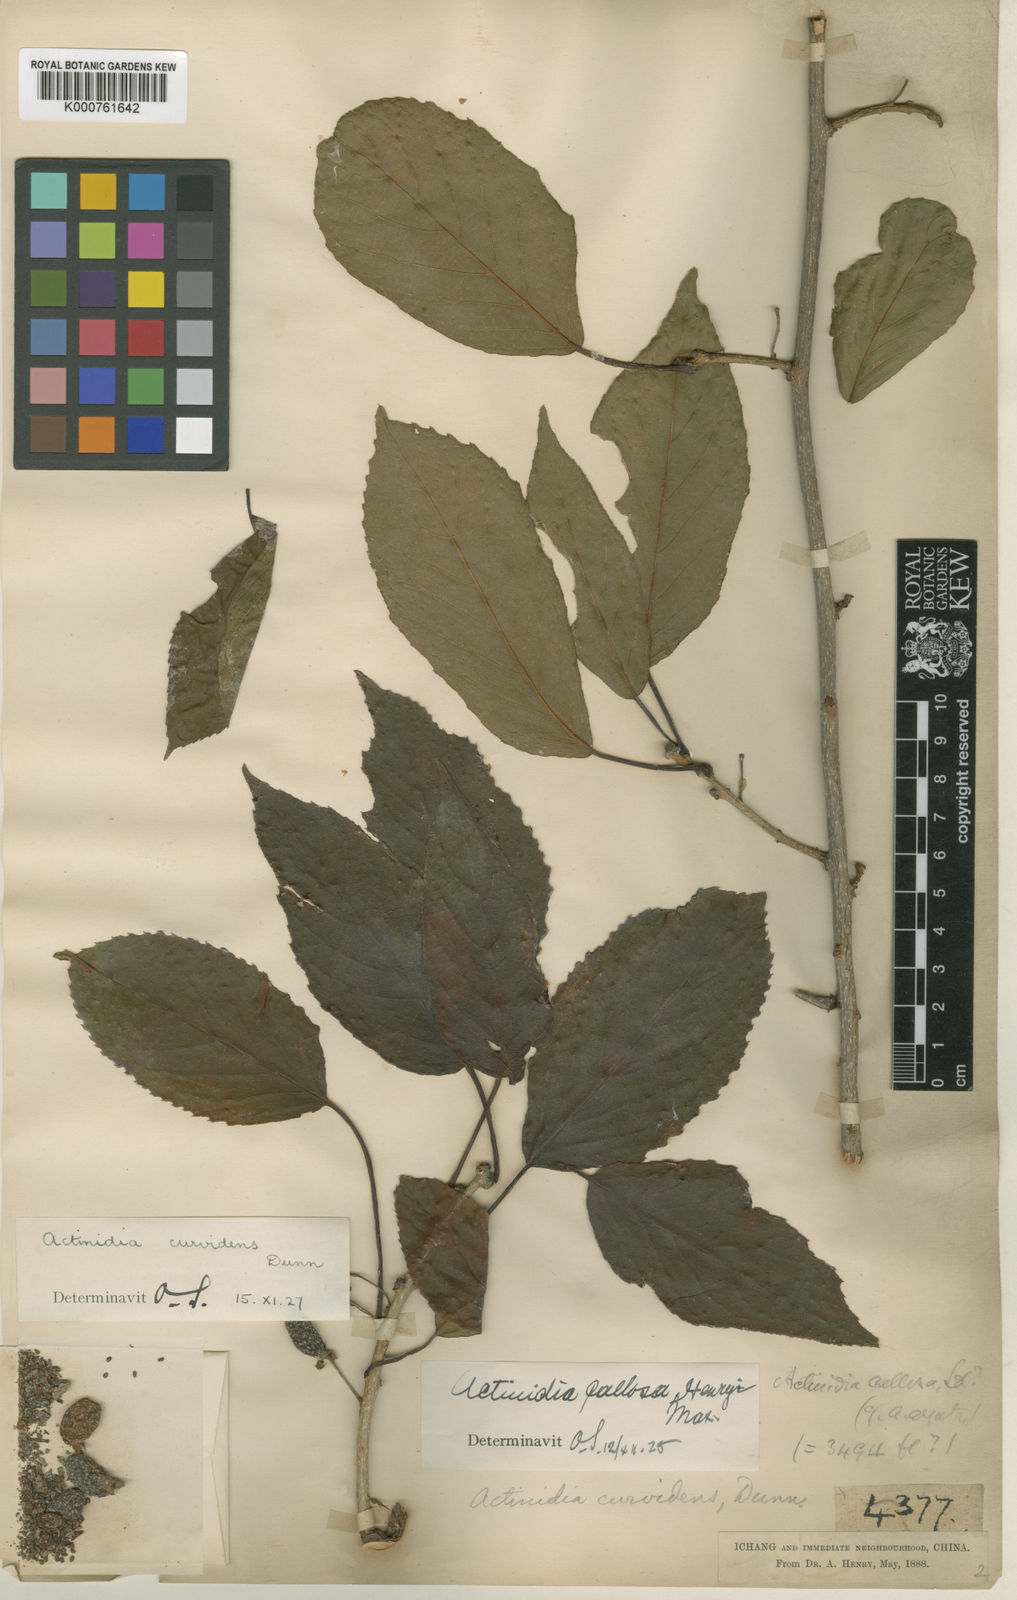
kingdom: Plantae
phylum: Tracheophyta
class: Magnoliopsida
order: Ericales
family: Actinidiaceae
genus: Actinidia
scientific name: Actinidia callosa
